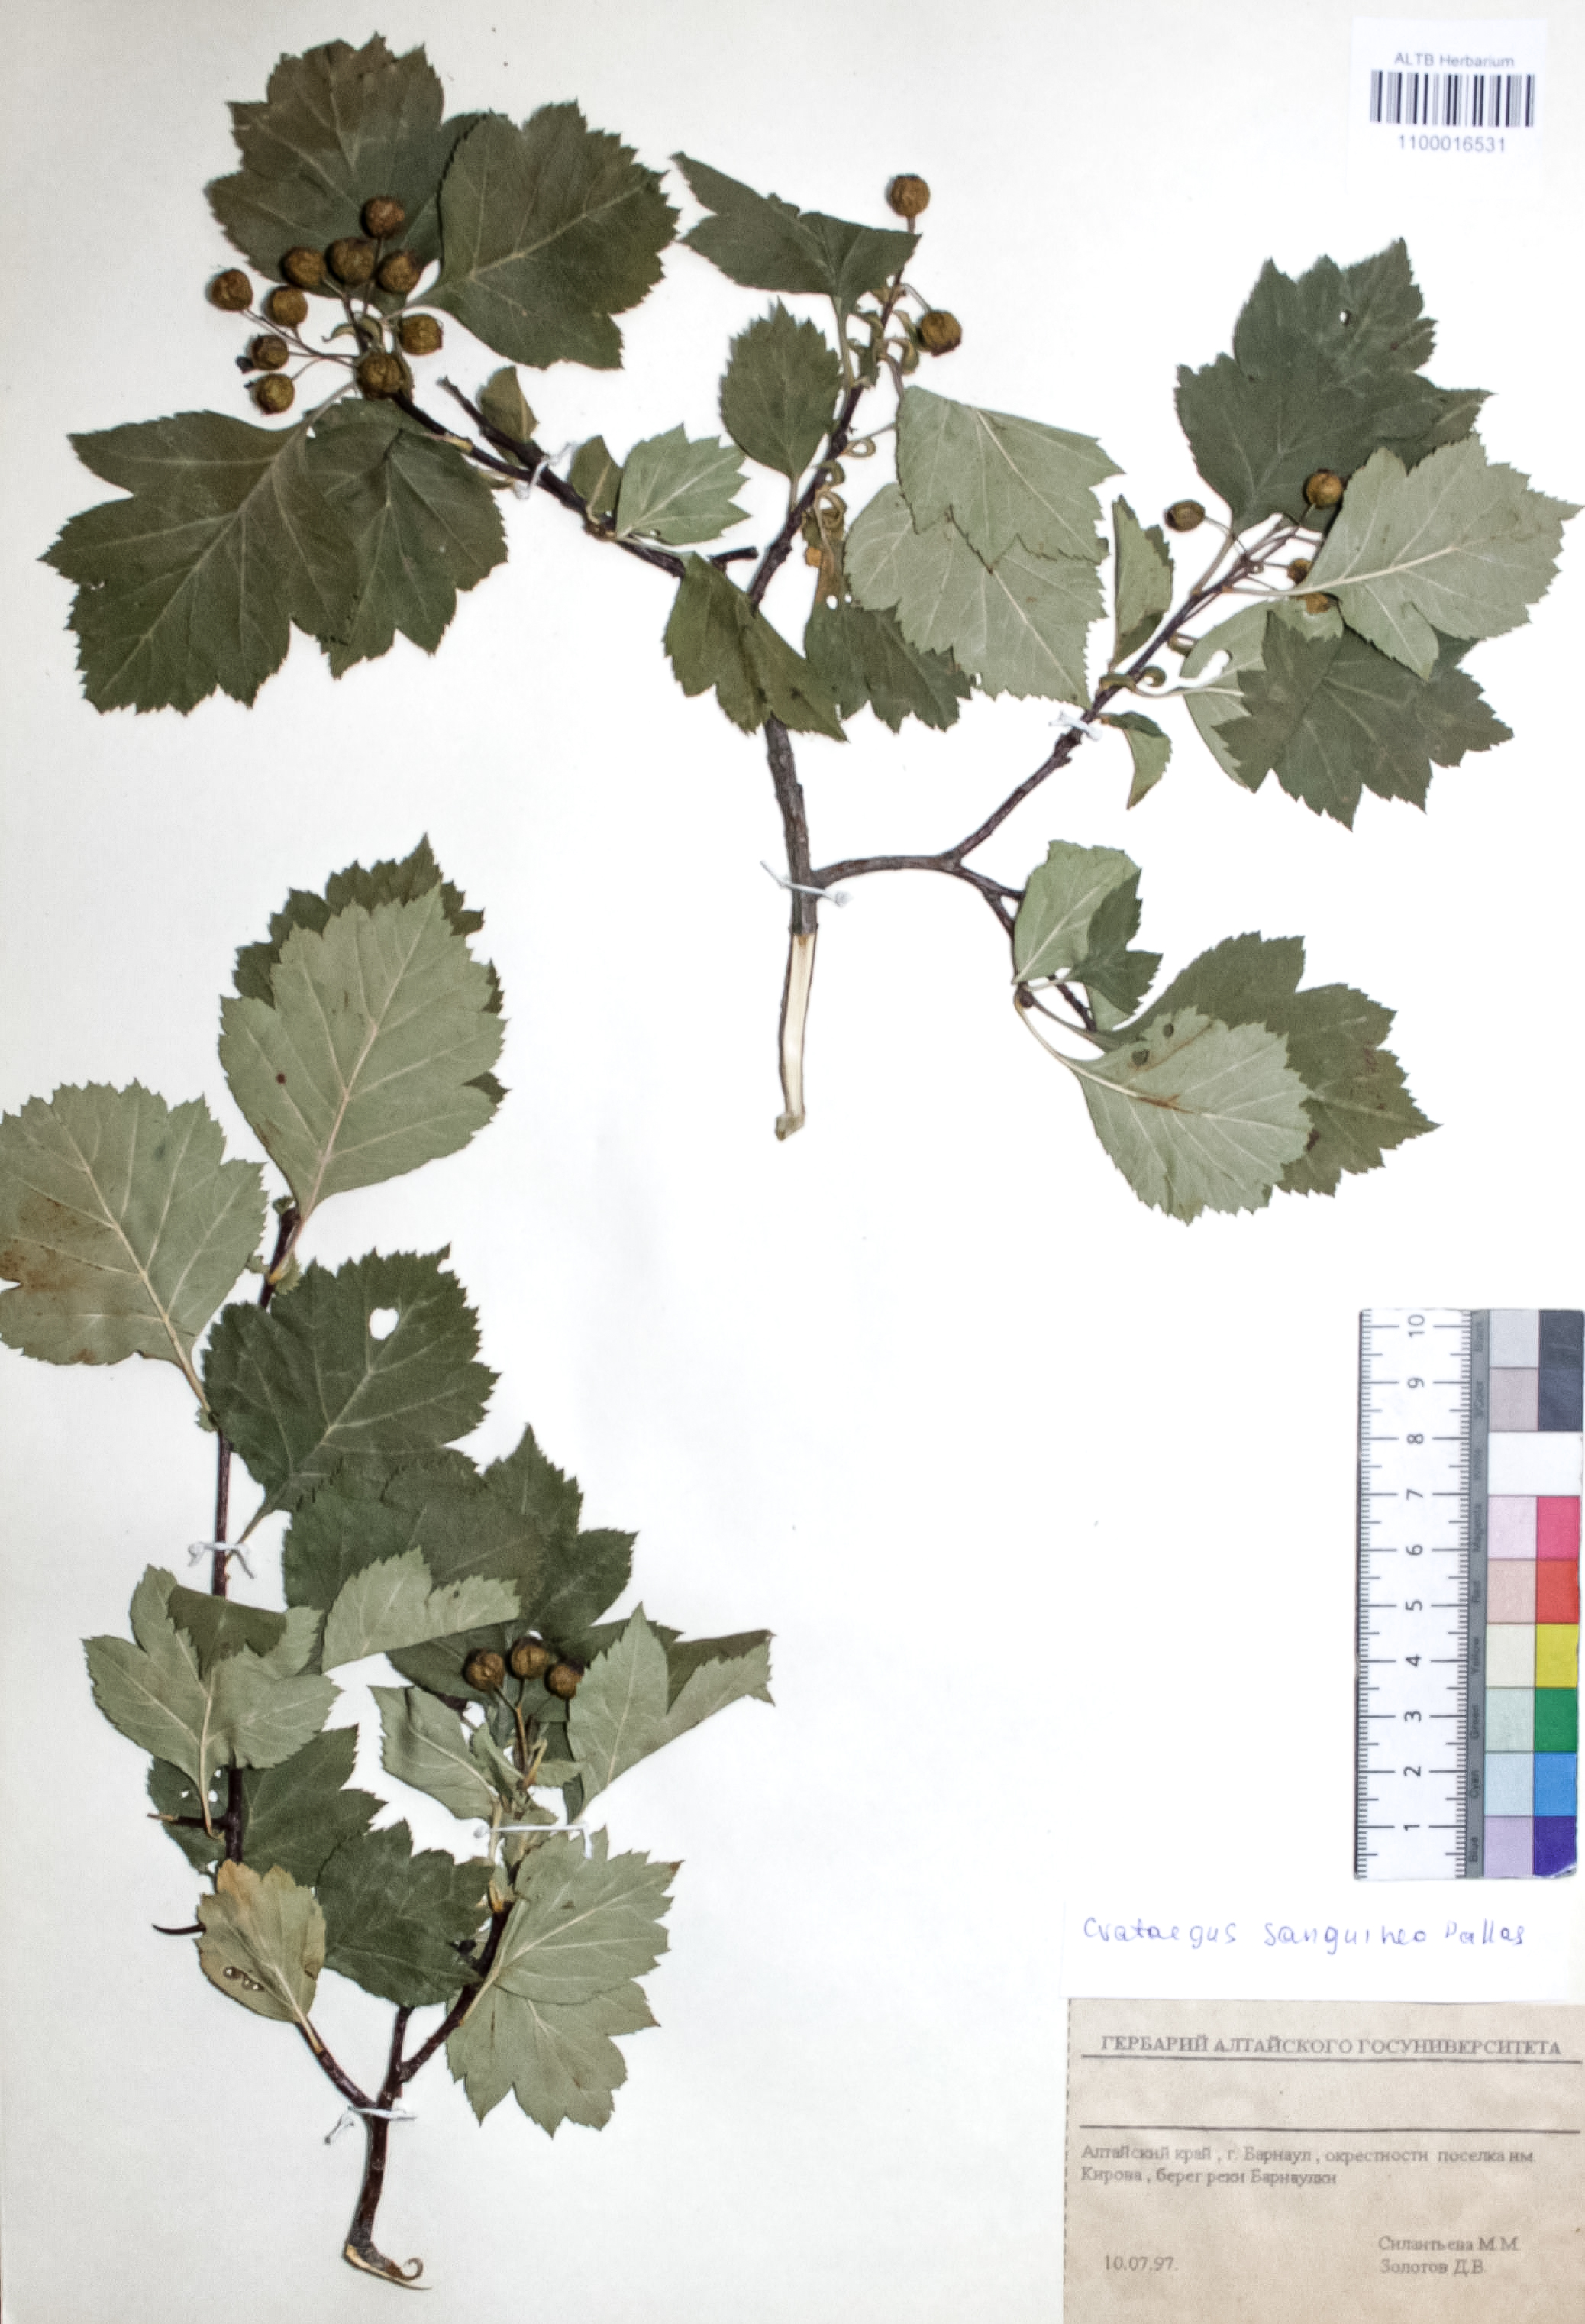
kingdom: Plantae
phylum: Tracheophyta
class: Magnoliopsida
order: Rosales
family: Rosaceae
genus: Crataegus
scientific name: Crataegus sanguinea
